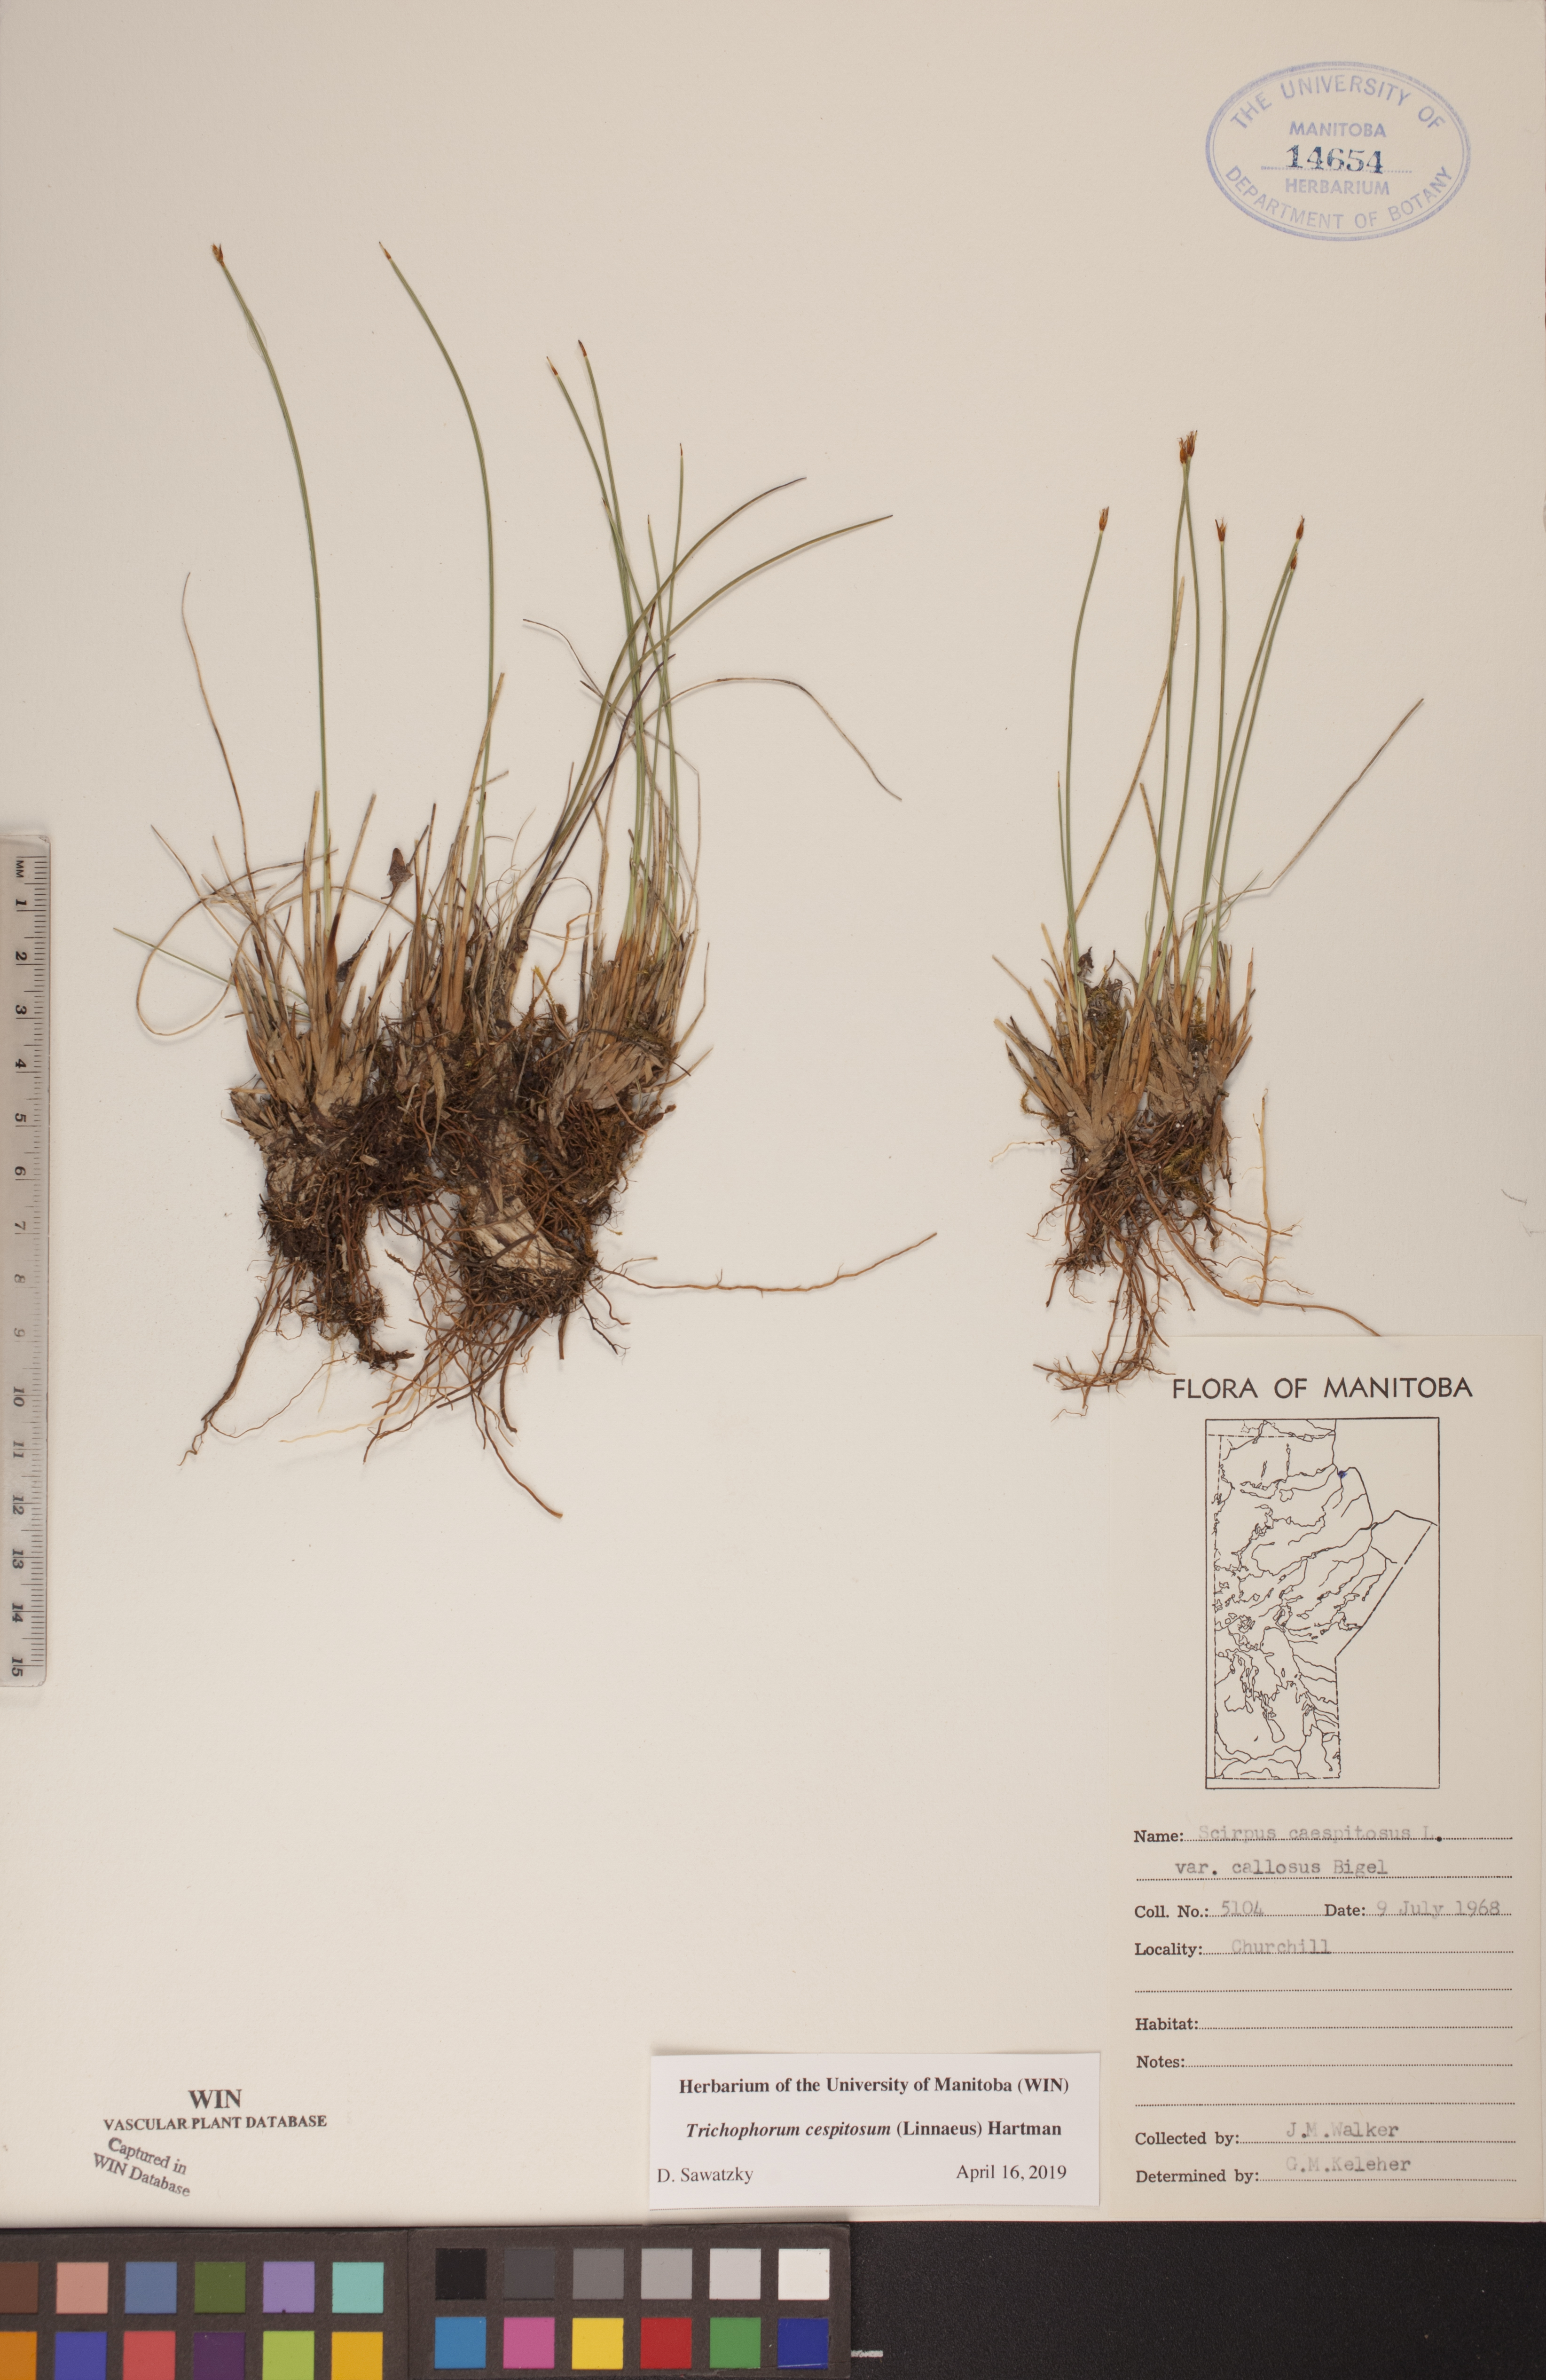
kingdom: Plantae
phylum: Tracheophyta
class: Liliopsida
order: Poales
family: Cyperaceae
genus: Trichophorum
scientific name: Trichophorum cespitosum
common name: Cespitose bulrush
